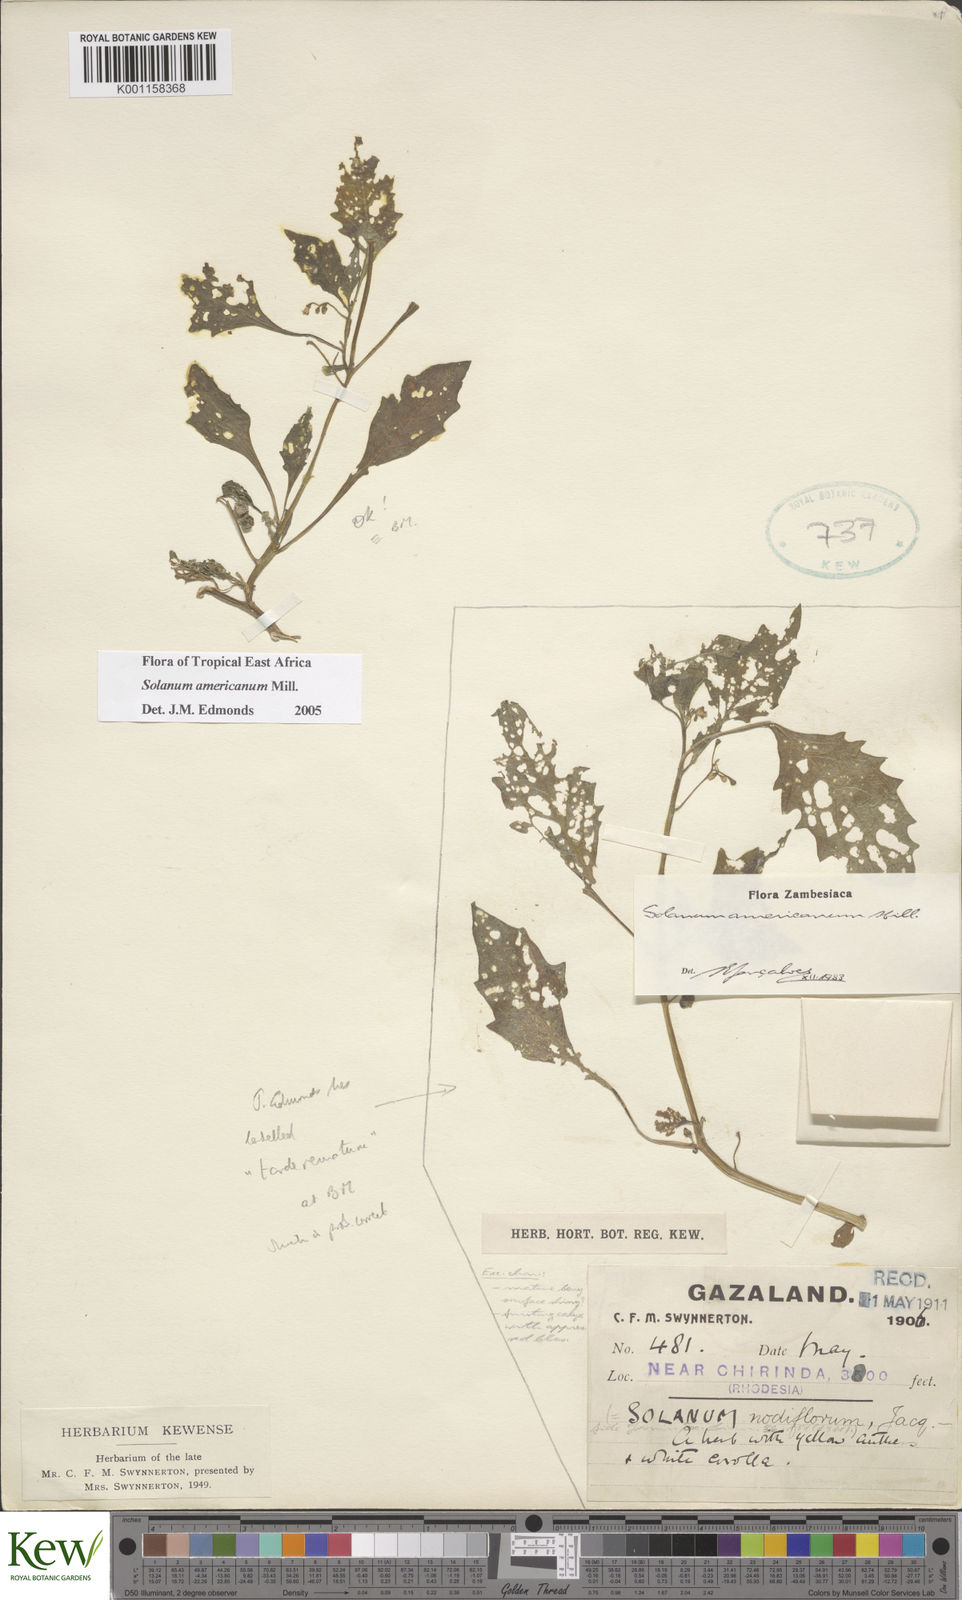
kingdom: Plantae
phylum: Tracheophyta
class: Magnoliopsida
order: Solanales
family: Solanaceae
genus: Solanum
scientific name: Solanum americanum
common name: American black nightshade
